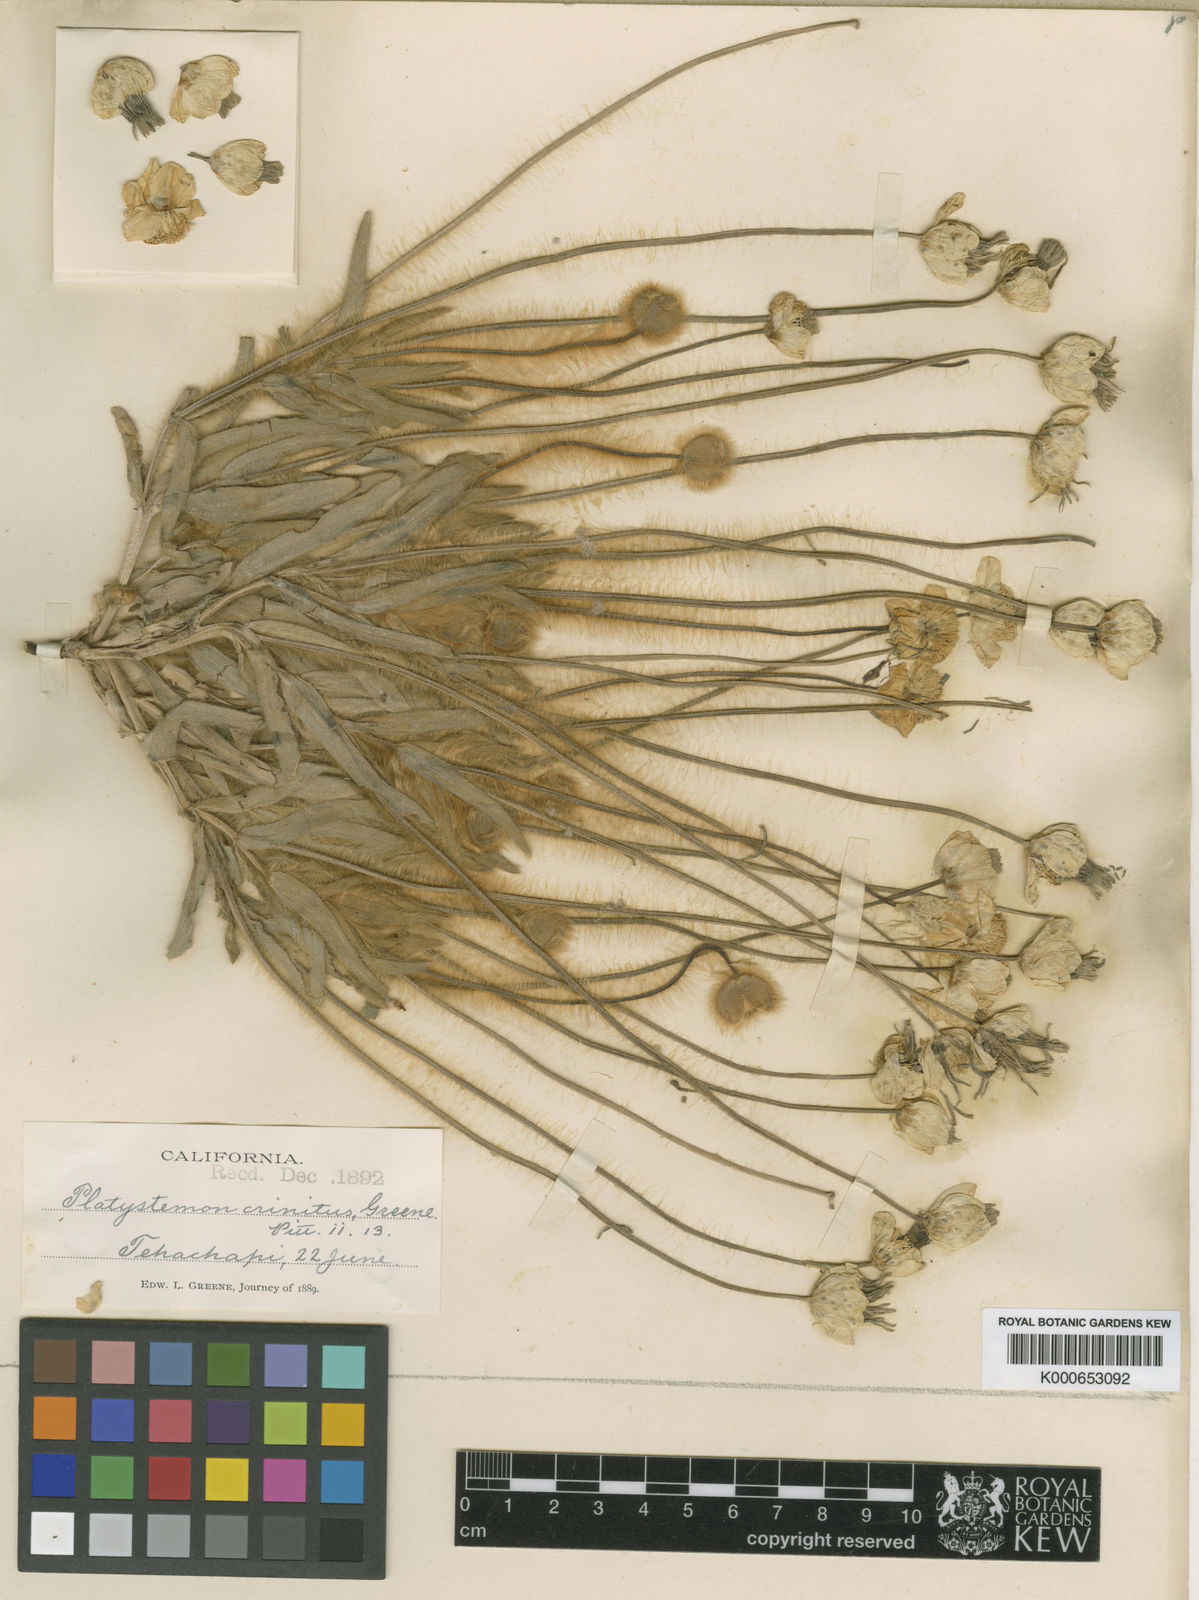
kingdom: Plantae
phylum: Tracheophyta
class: Magnoliopsida
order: Ranunculales
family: Papaveraceae
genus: Platystemon
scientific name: Platystemon californicus
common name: Cream-cups
